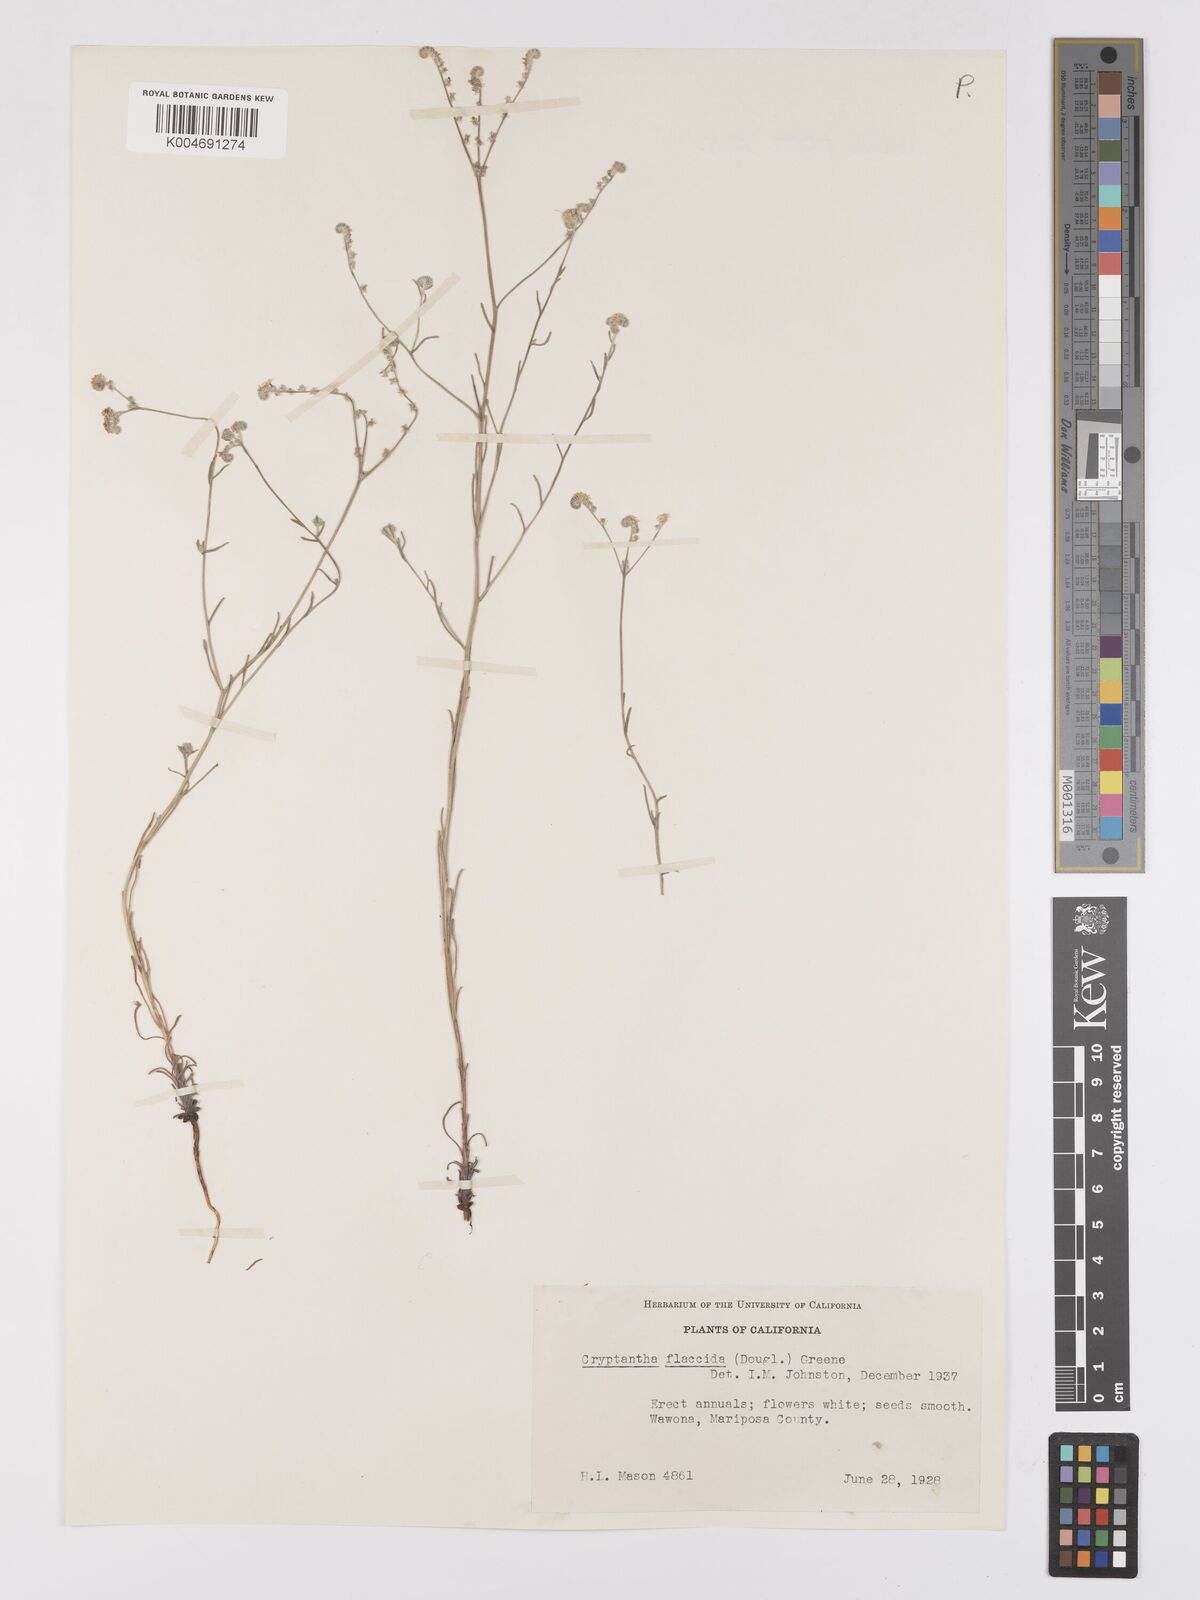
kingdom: Plantae
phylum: Tracheophyta
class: Magnoliopsida
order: Boraginales
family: Boraginaceae
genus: Cryptantha
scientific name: Cryptantha flaccida
